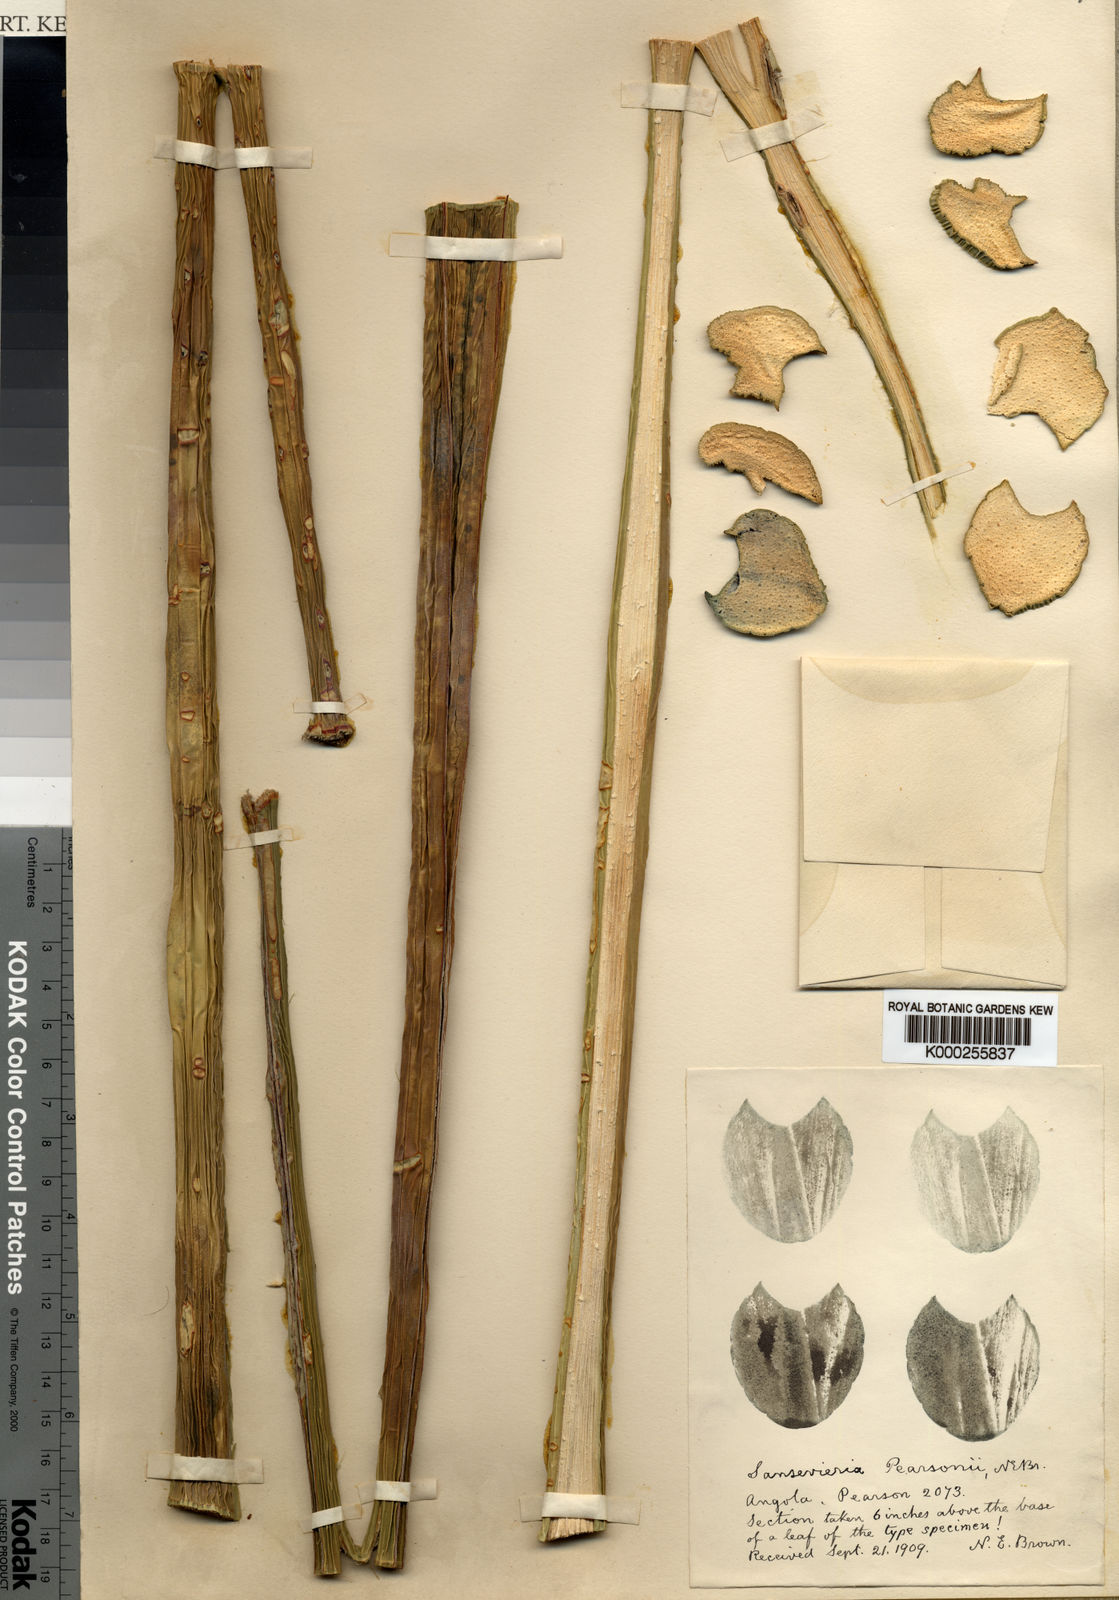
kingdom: Plantae
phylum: Tracheophyta
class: Liliopsida
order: Asparagales
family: Asparagaceae
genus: Dracaena
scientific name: Dracaena pearsonii
